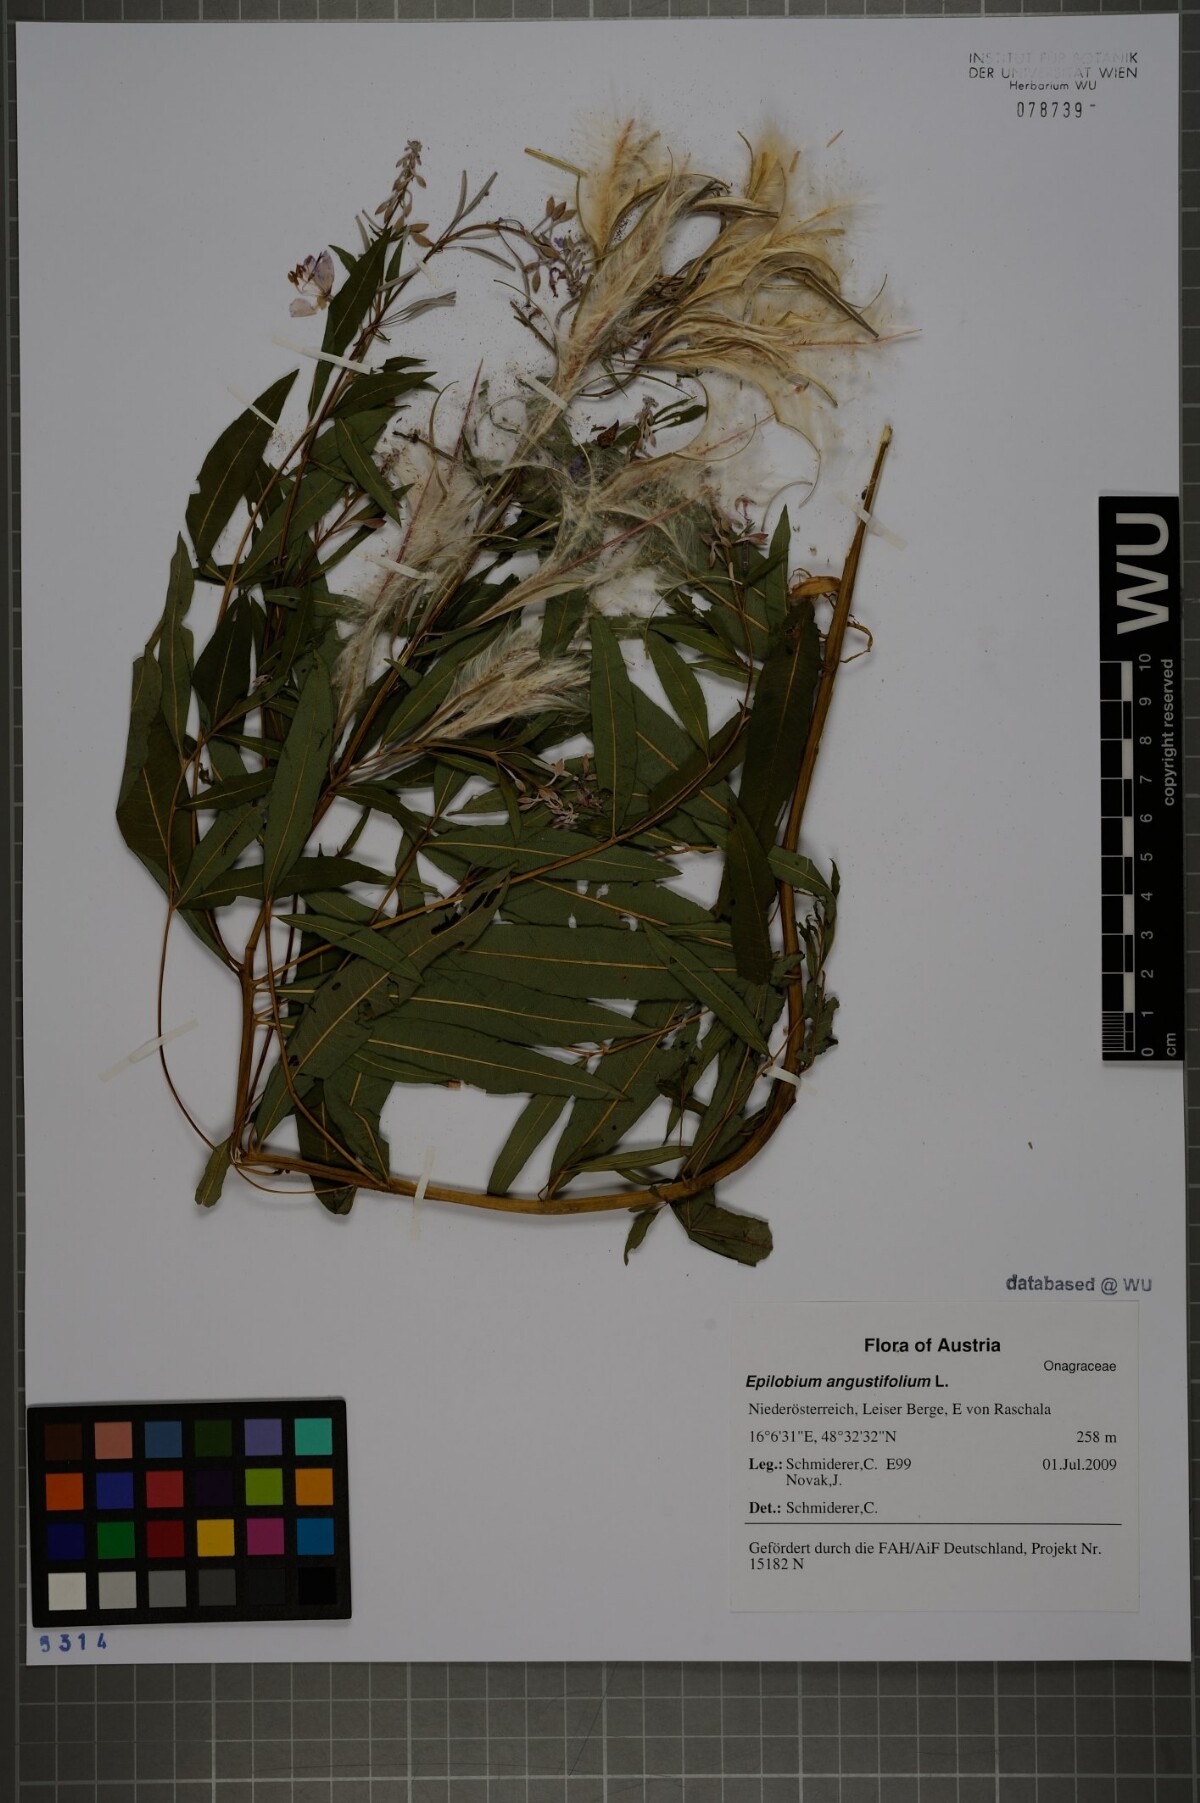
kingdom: Plantae
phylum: Tracheophyta
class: Magnoliopsida
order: Myrtales
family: Onagraceae
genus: Chamaenerion
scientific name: Chamaenerion angustifolium
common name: Fireweed
